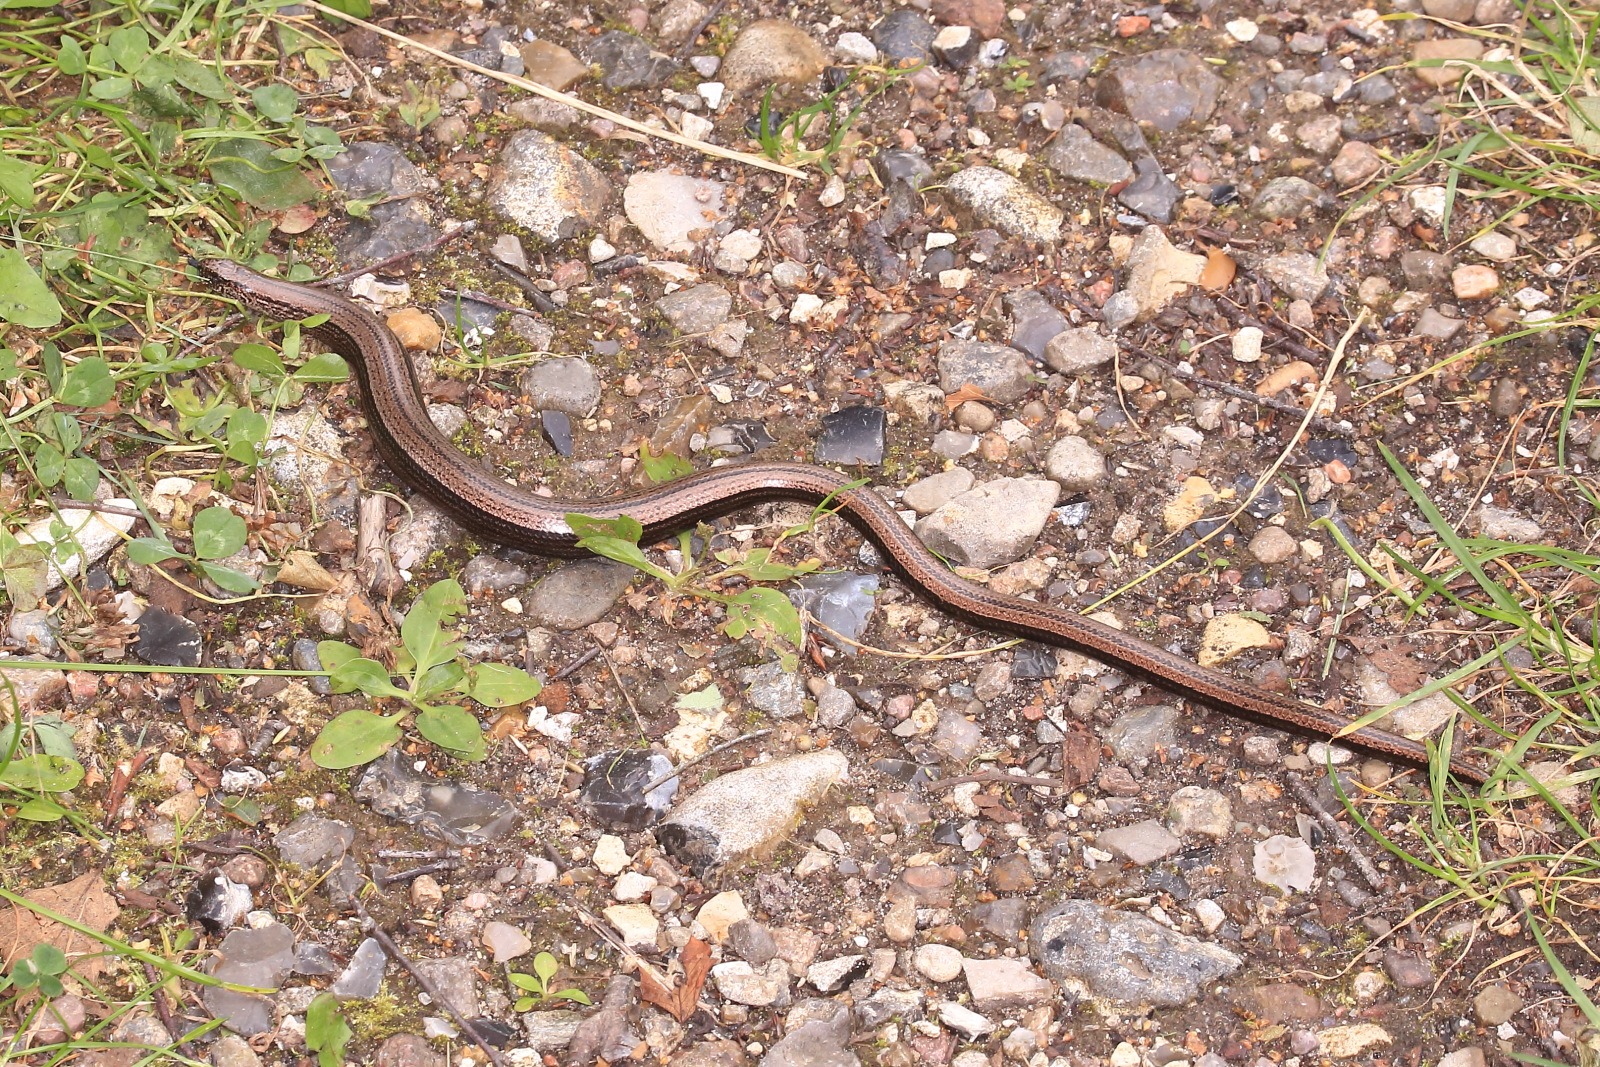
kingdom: Animalia
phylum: Chordata
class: Squamata
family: Anguidae
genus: Anguis
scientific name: Anguis fragilis
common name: Stålorm
